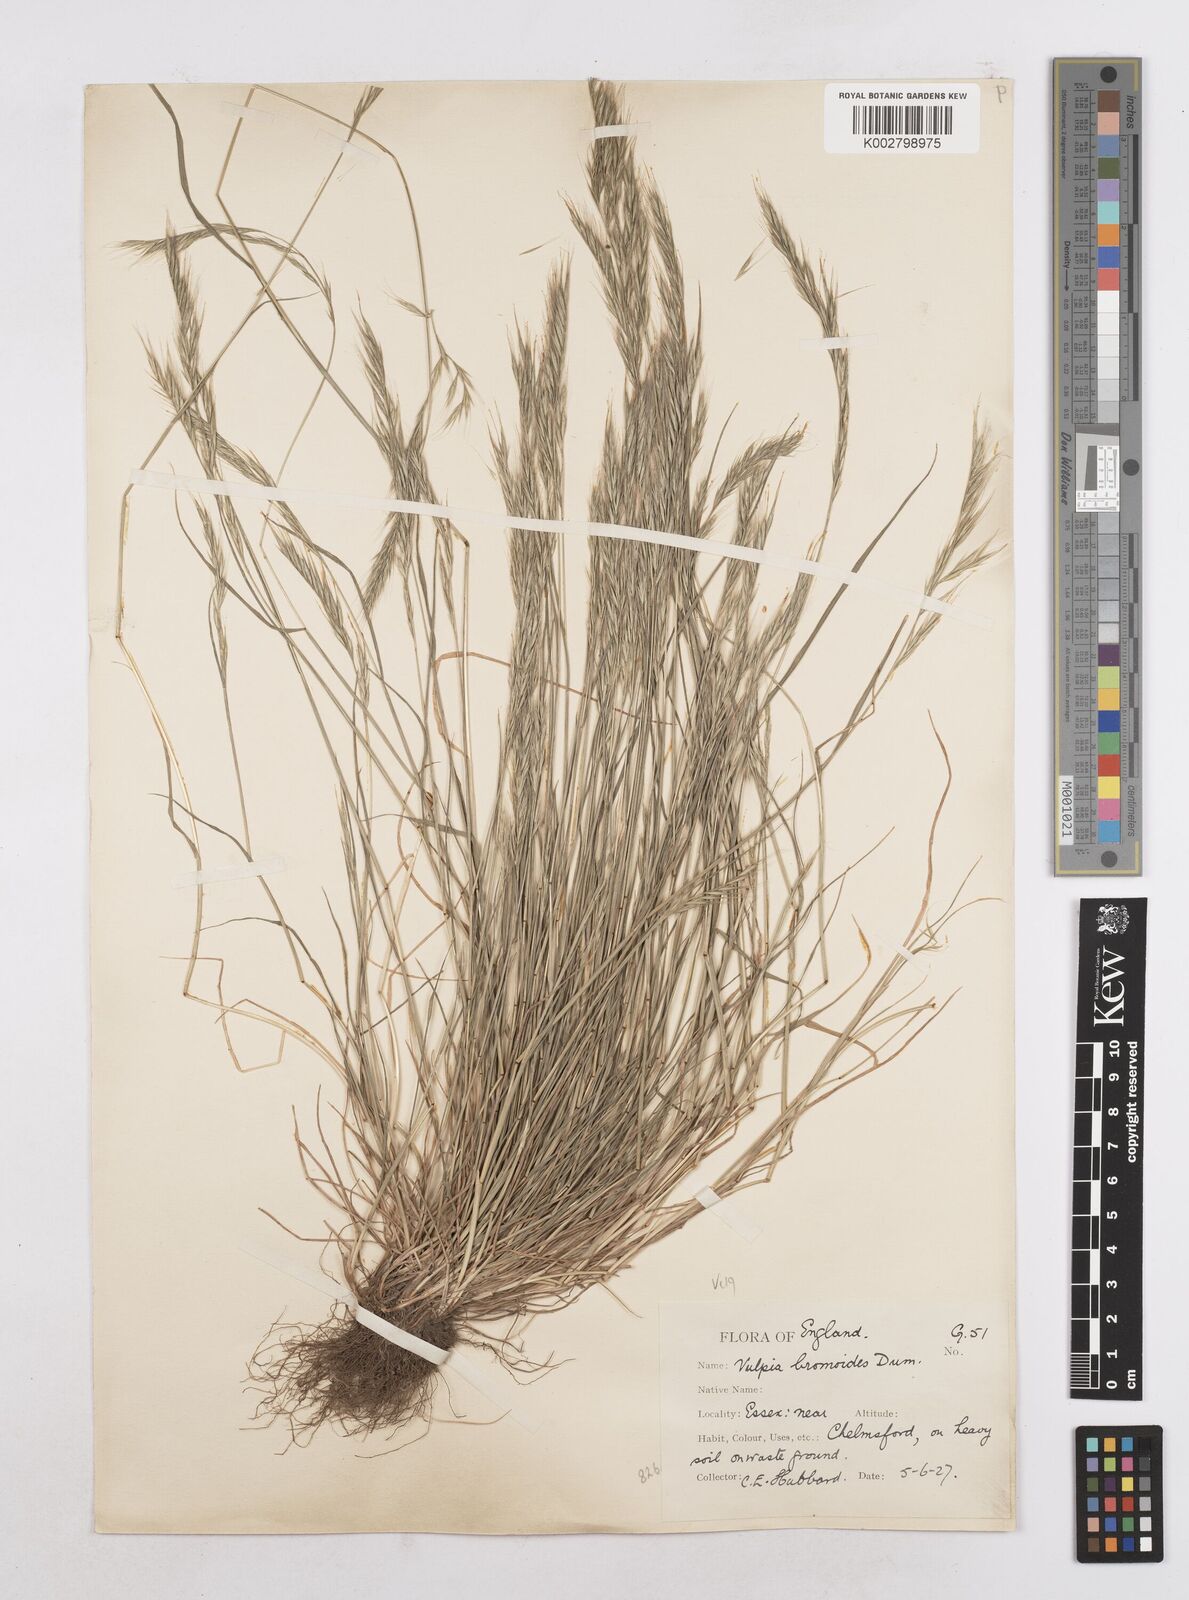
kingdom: Plantae
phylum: Tracheophyta
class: Liliopsida
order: Poales
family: Poaceae
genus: Festuca
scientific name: Festuca bromoides
